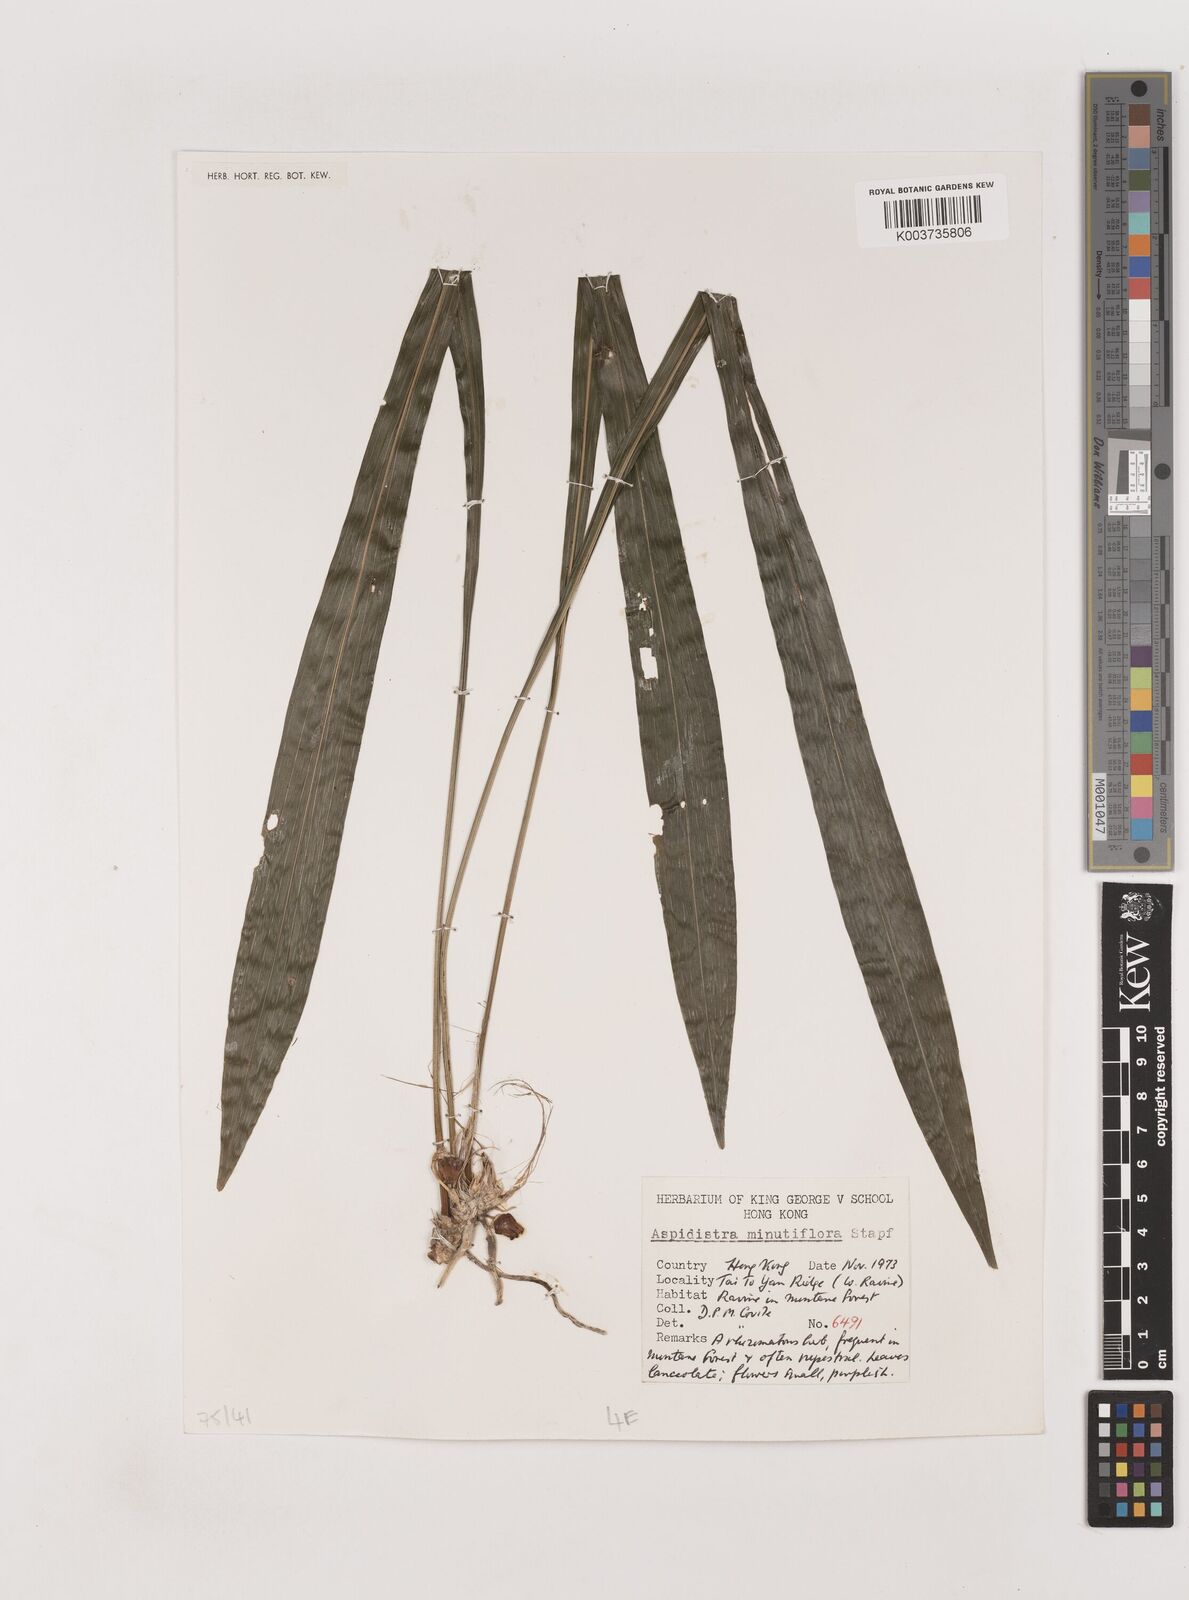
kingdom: Plantae
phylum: Tracheophyta
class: Liliopsida
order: Asparagales
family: Asparagaceae
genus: Aspidistra
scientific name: Aspidistra minutiflora
